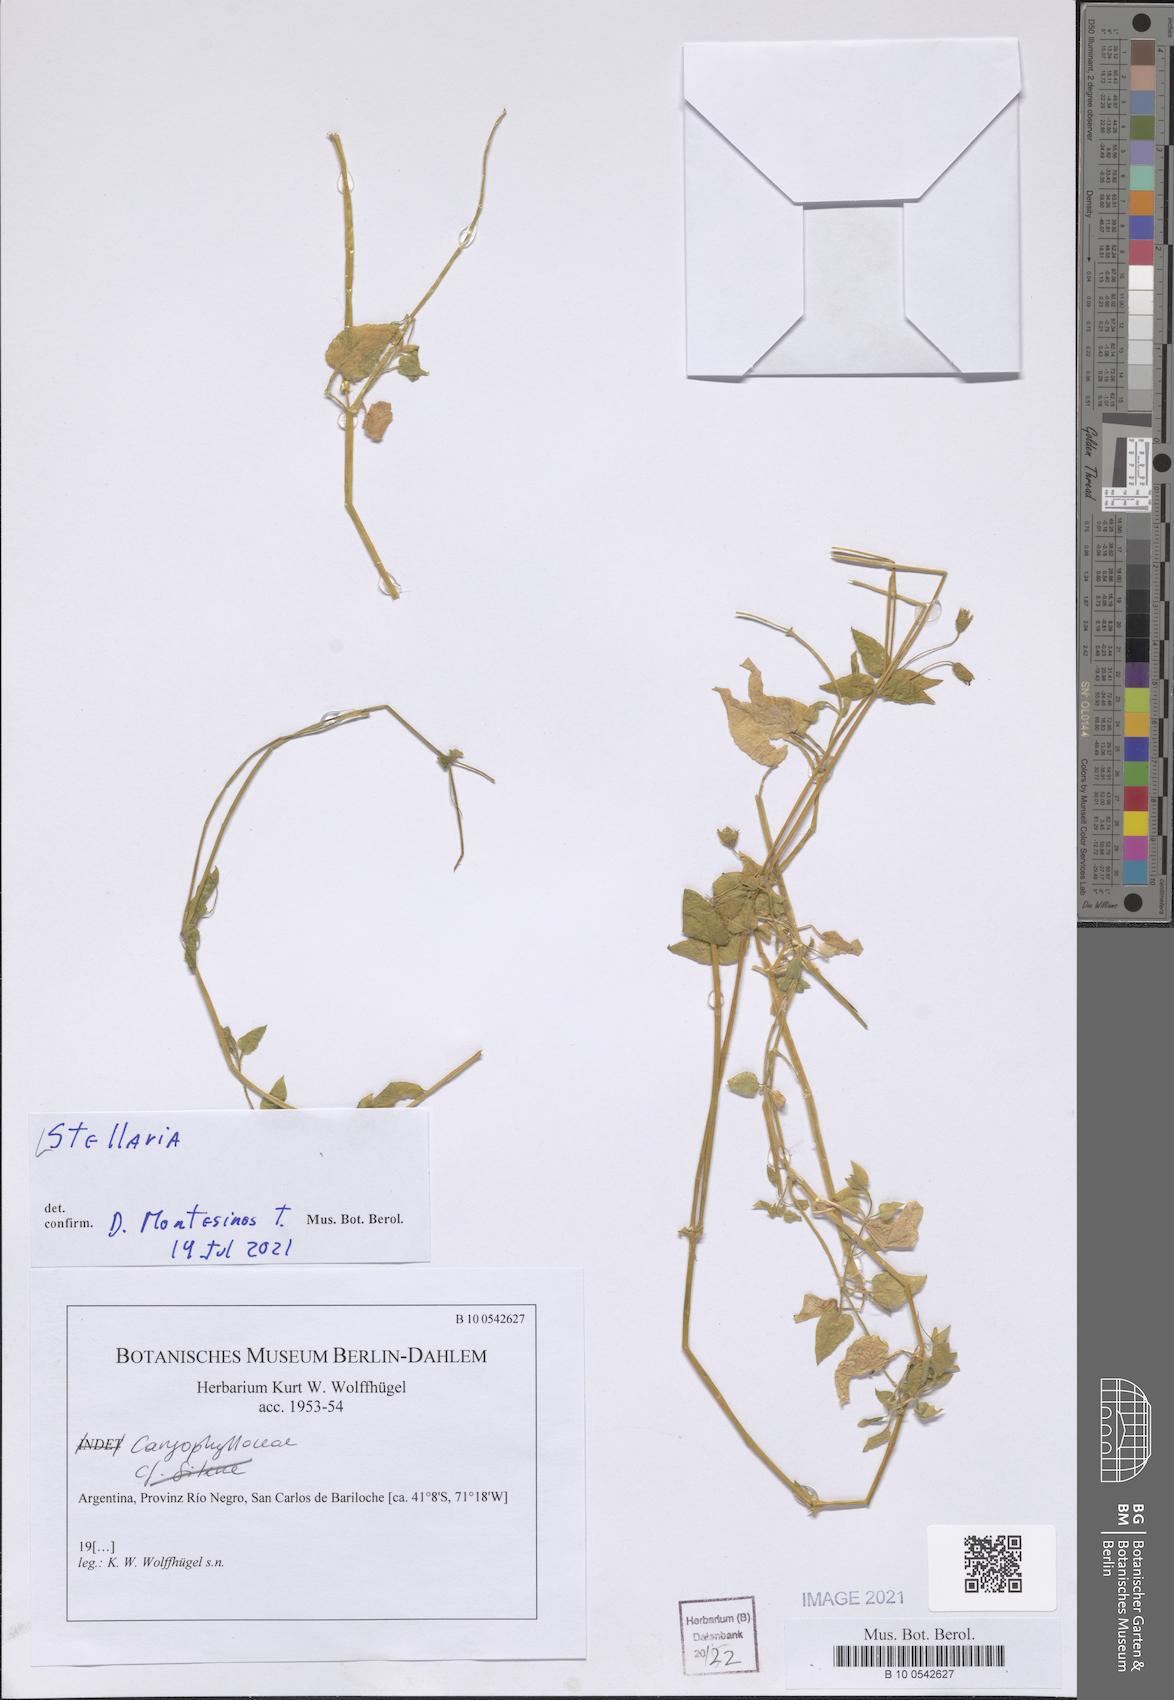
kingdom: Plantae
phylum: Tracheophyta
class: Magnoliopsida
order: Caryophyllales
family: Caryophyllaceae
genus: Stellaria
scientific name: Stellaria
